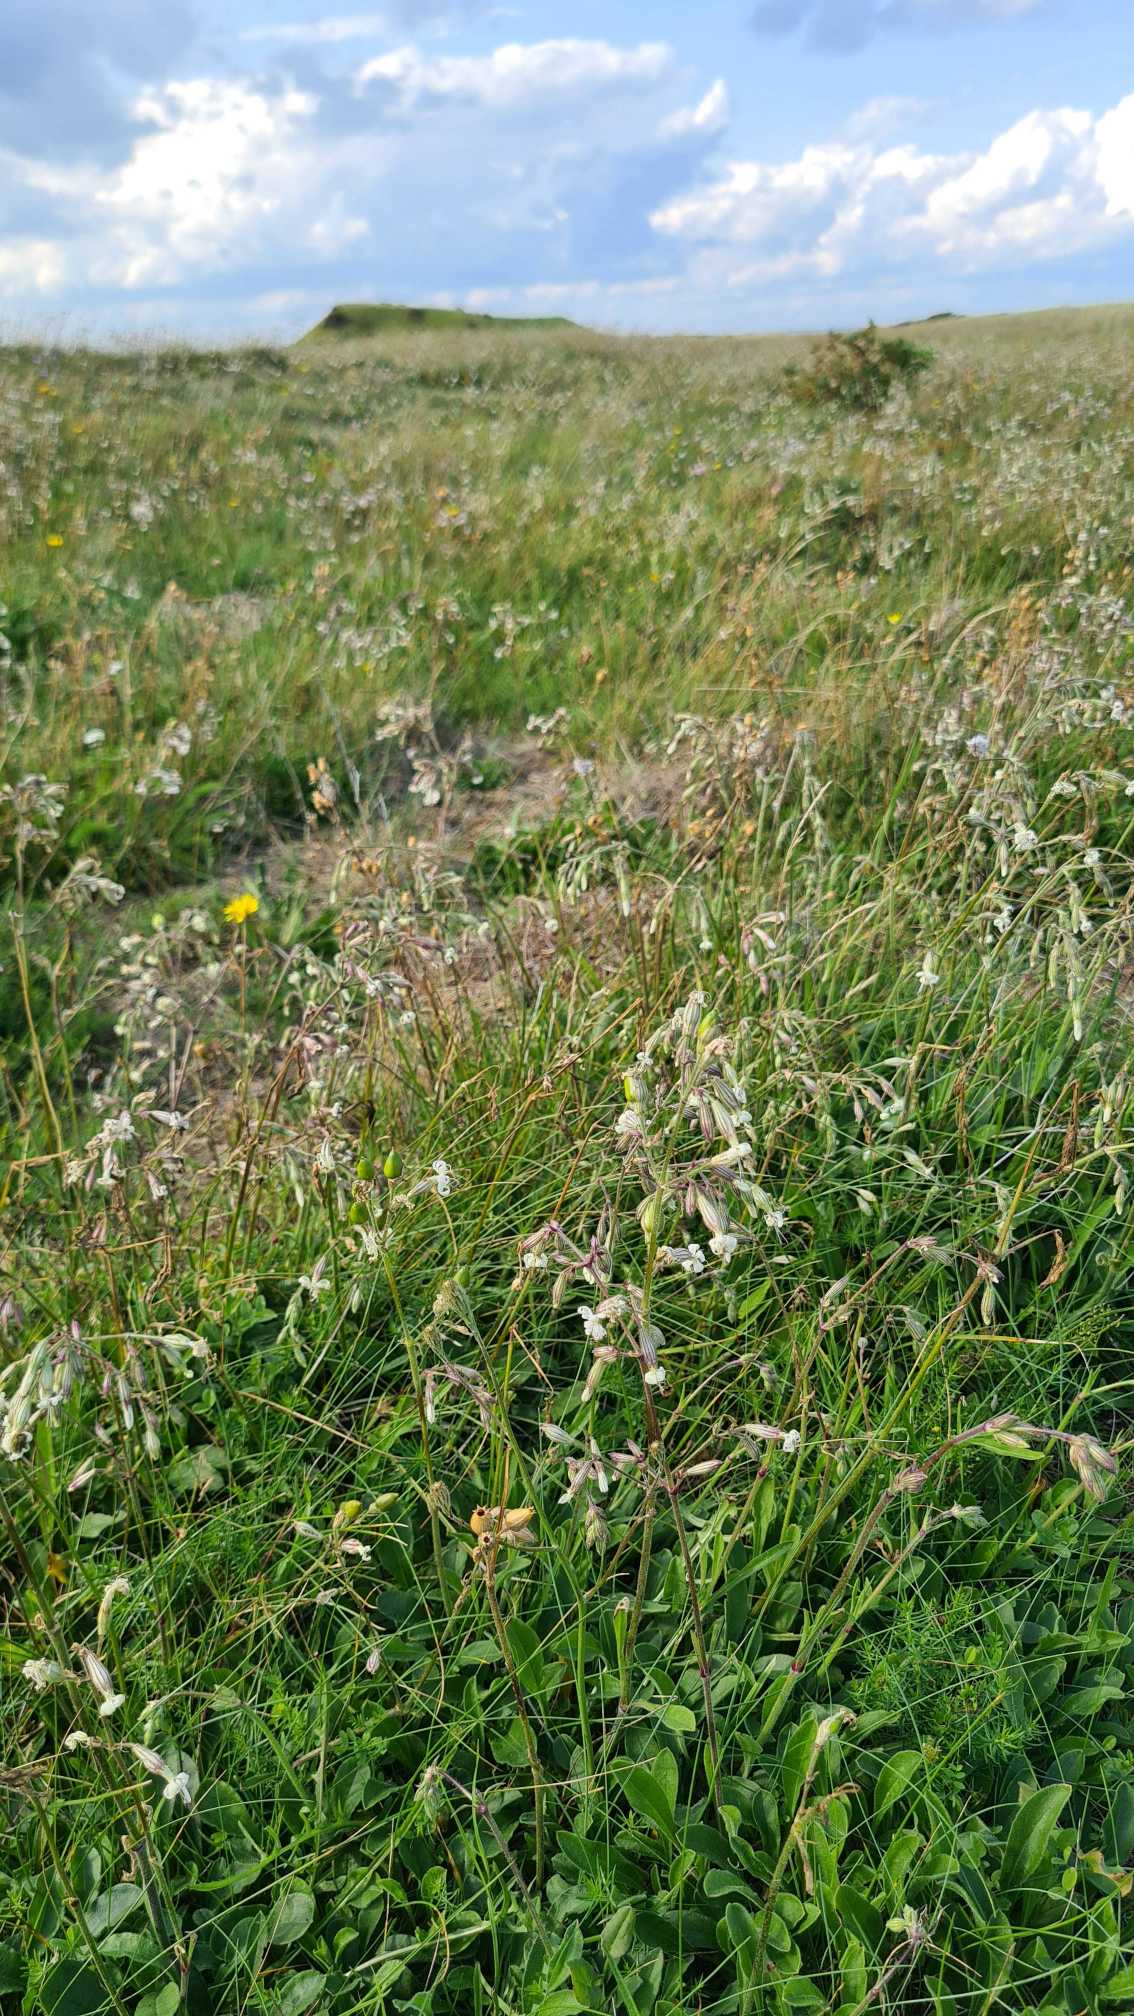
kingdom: Plantae
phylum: Tracheophyta
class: Magnoliopsida
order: Caryophyllales
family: Caryophyllaceae
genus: Silene
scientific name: Silene nutans
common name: Nikkende limurt
